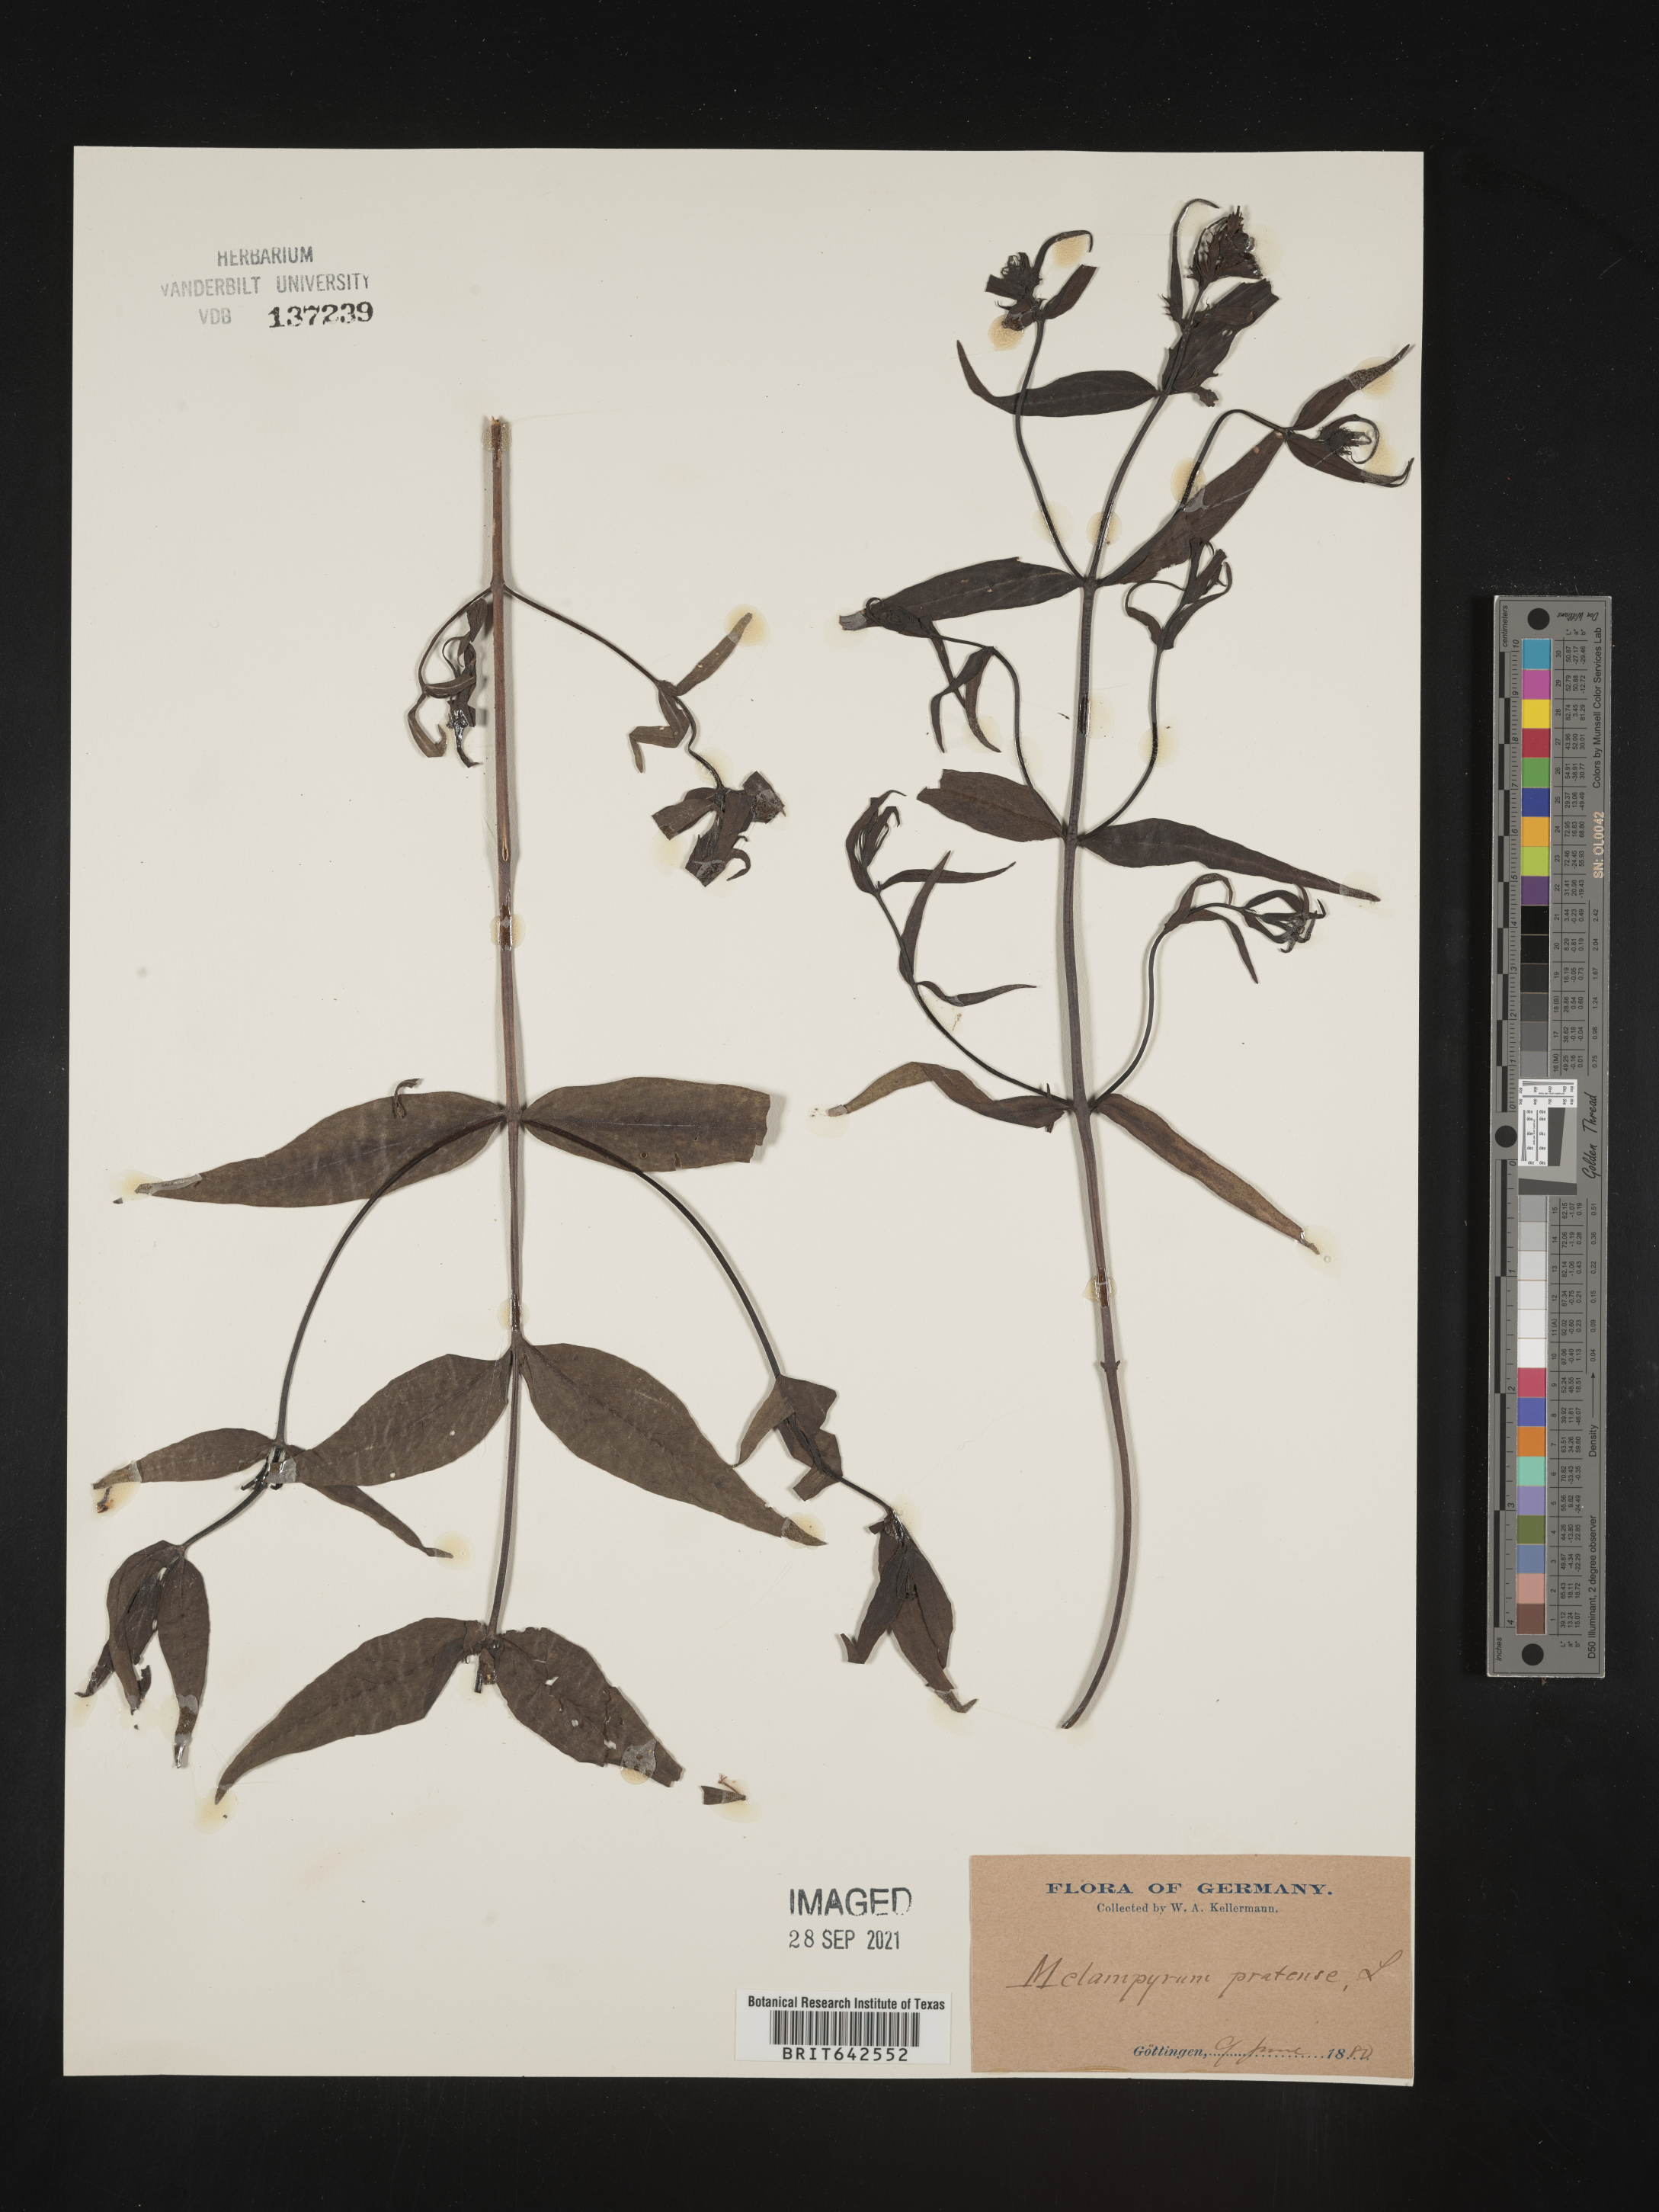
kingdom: Plantae
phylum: Tracheophyta
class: Magnoliopsida
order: Lamiales
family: Orobanchaceae
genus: Melampyrum
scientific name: Melampyrum
